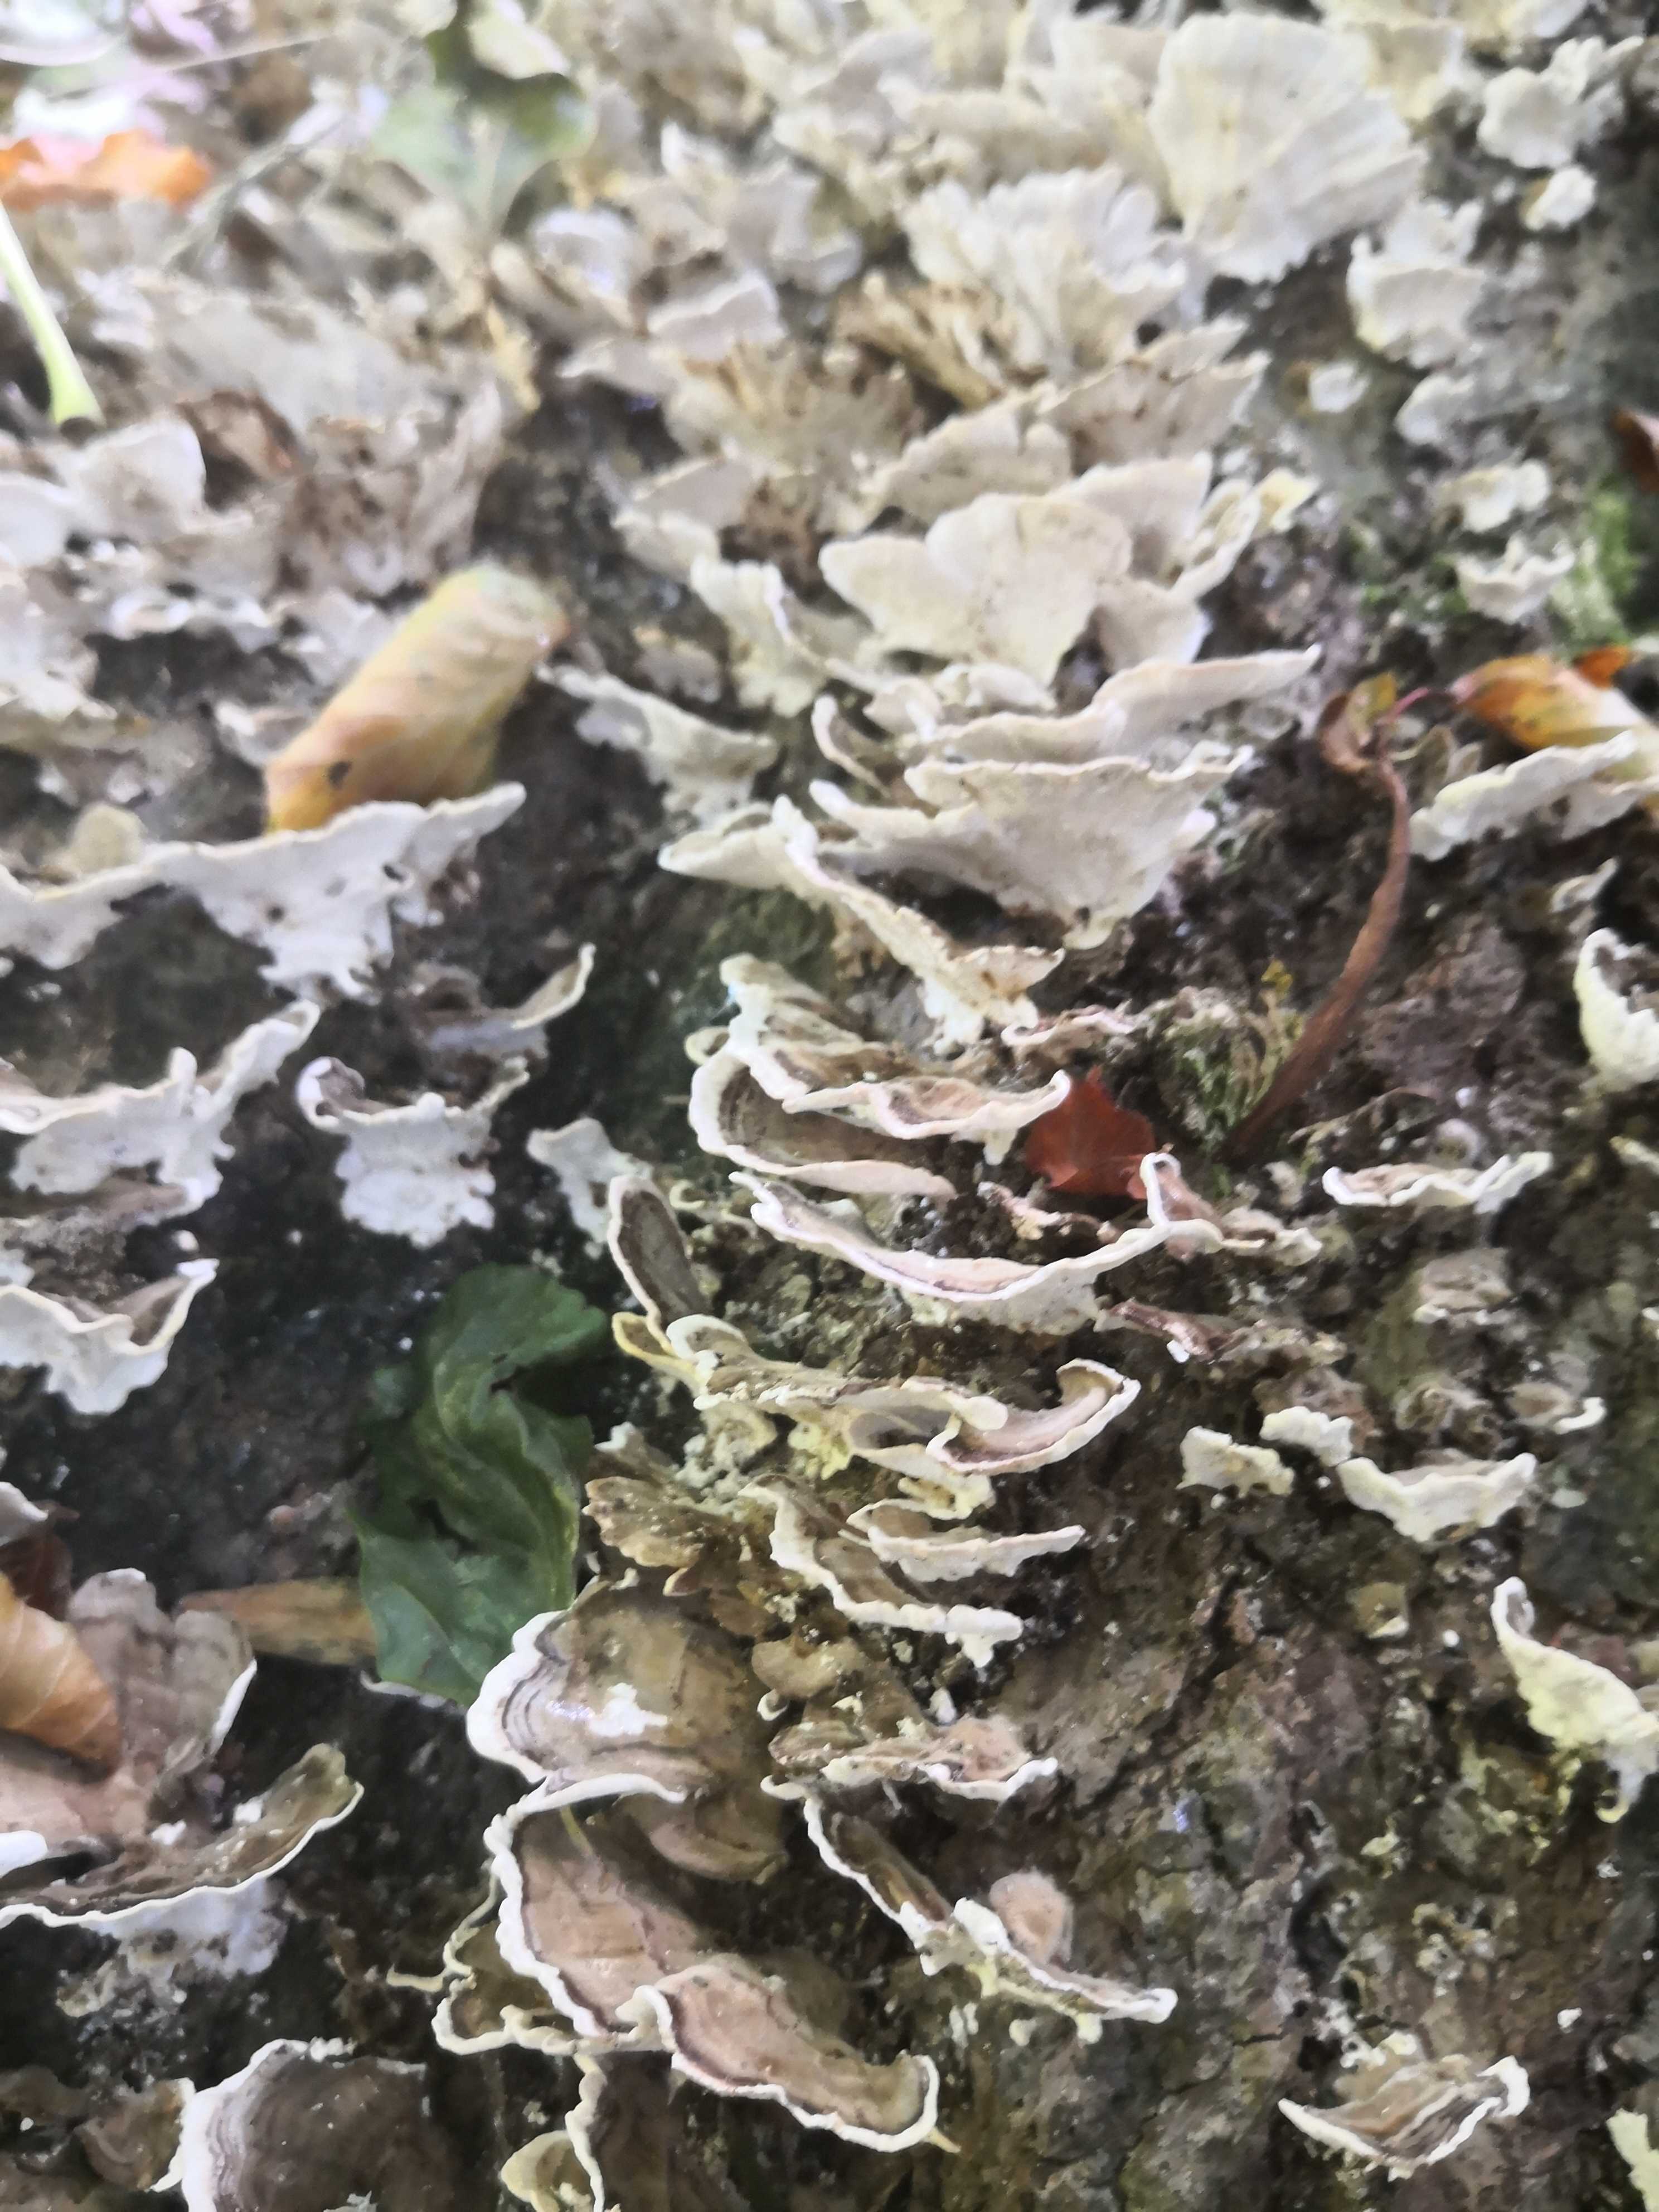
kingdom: Fungi
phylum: Basidiomycota
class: Agaricomycetes
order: Polyporales
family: Polyporaceae
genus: Trametes
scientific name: Trametes versicolor
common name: broget læderporesvamp
